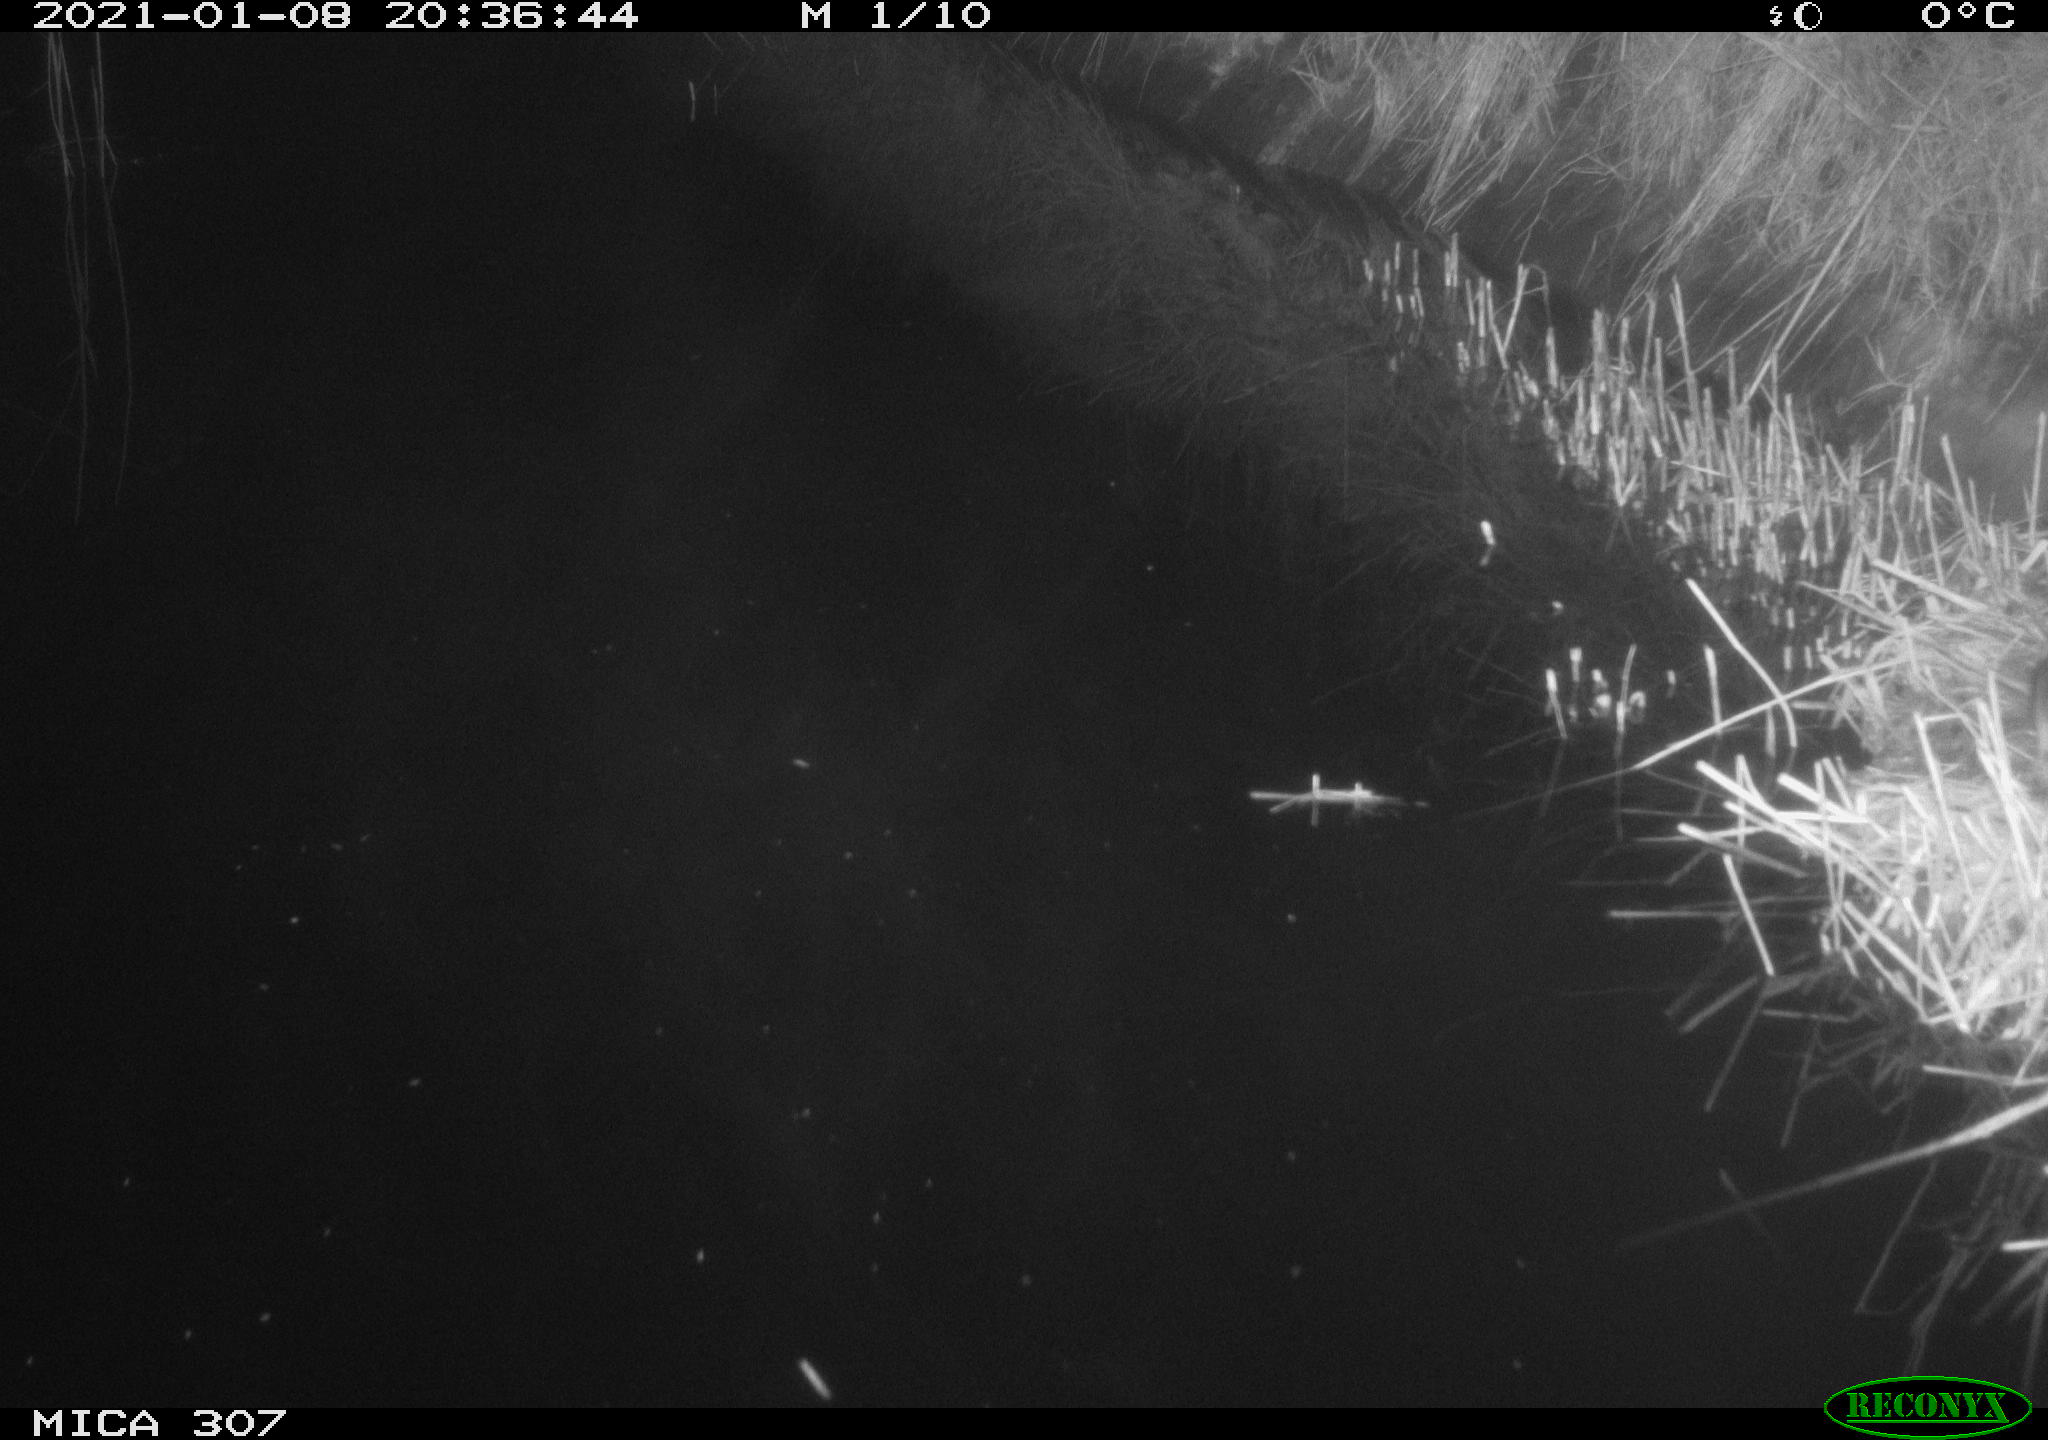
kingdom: Animalia
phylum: Chordata
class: Mammalia
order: Rodentia
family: Muridae
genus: Rattus
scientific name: Rattus norvegicus
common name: Brown rat
